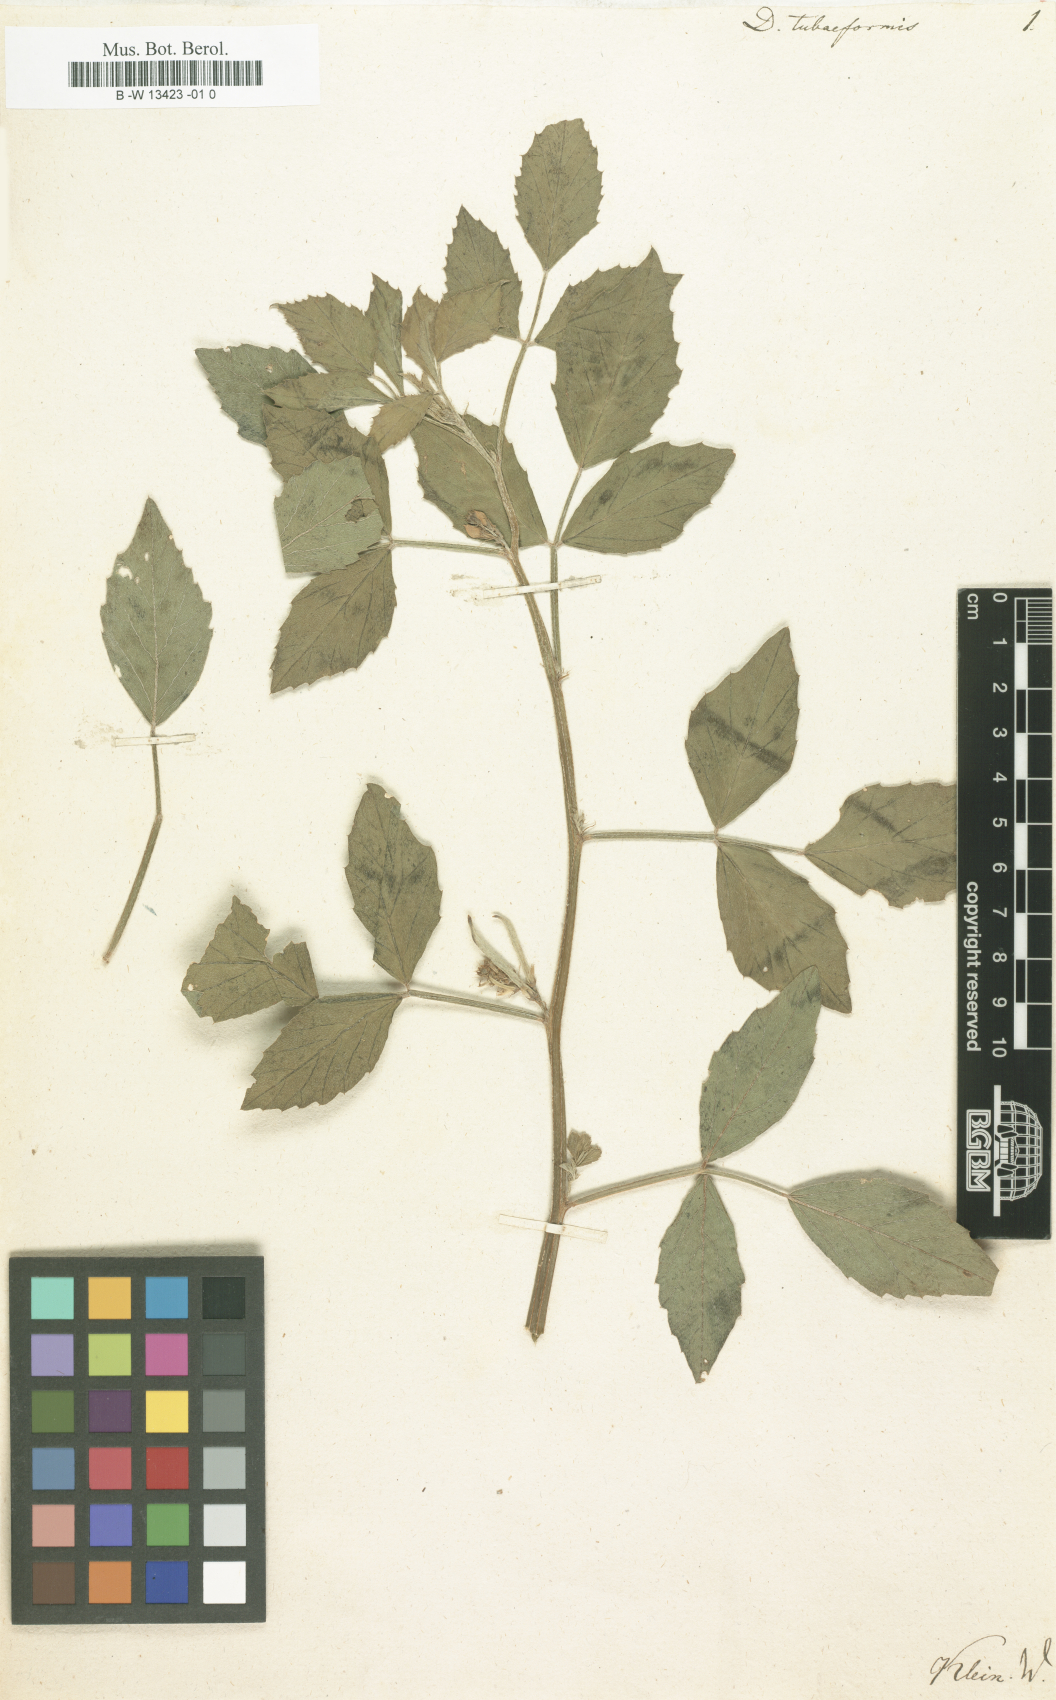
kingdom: Plantae
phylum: Tracheophyta
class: Magnoliopsida
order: Fabales
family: Fabaceae
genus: Dolichos
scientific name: Dolichos
